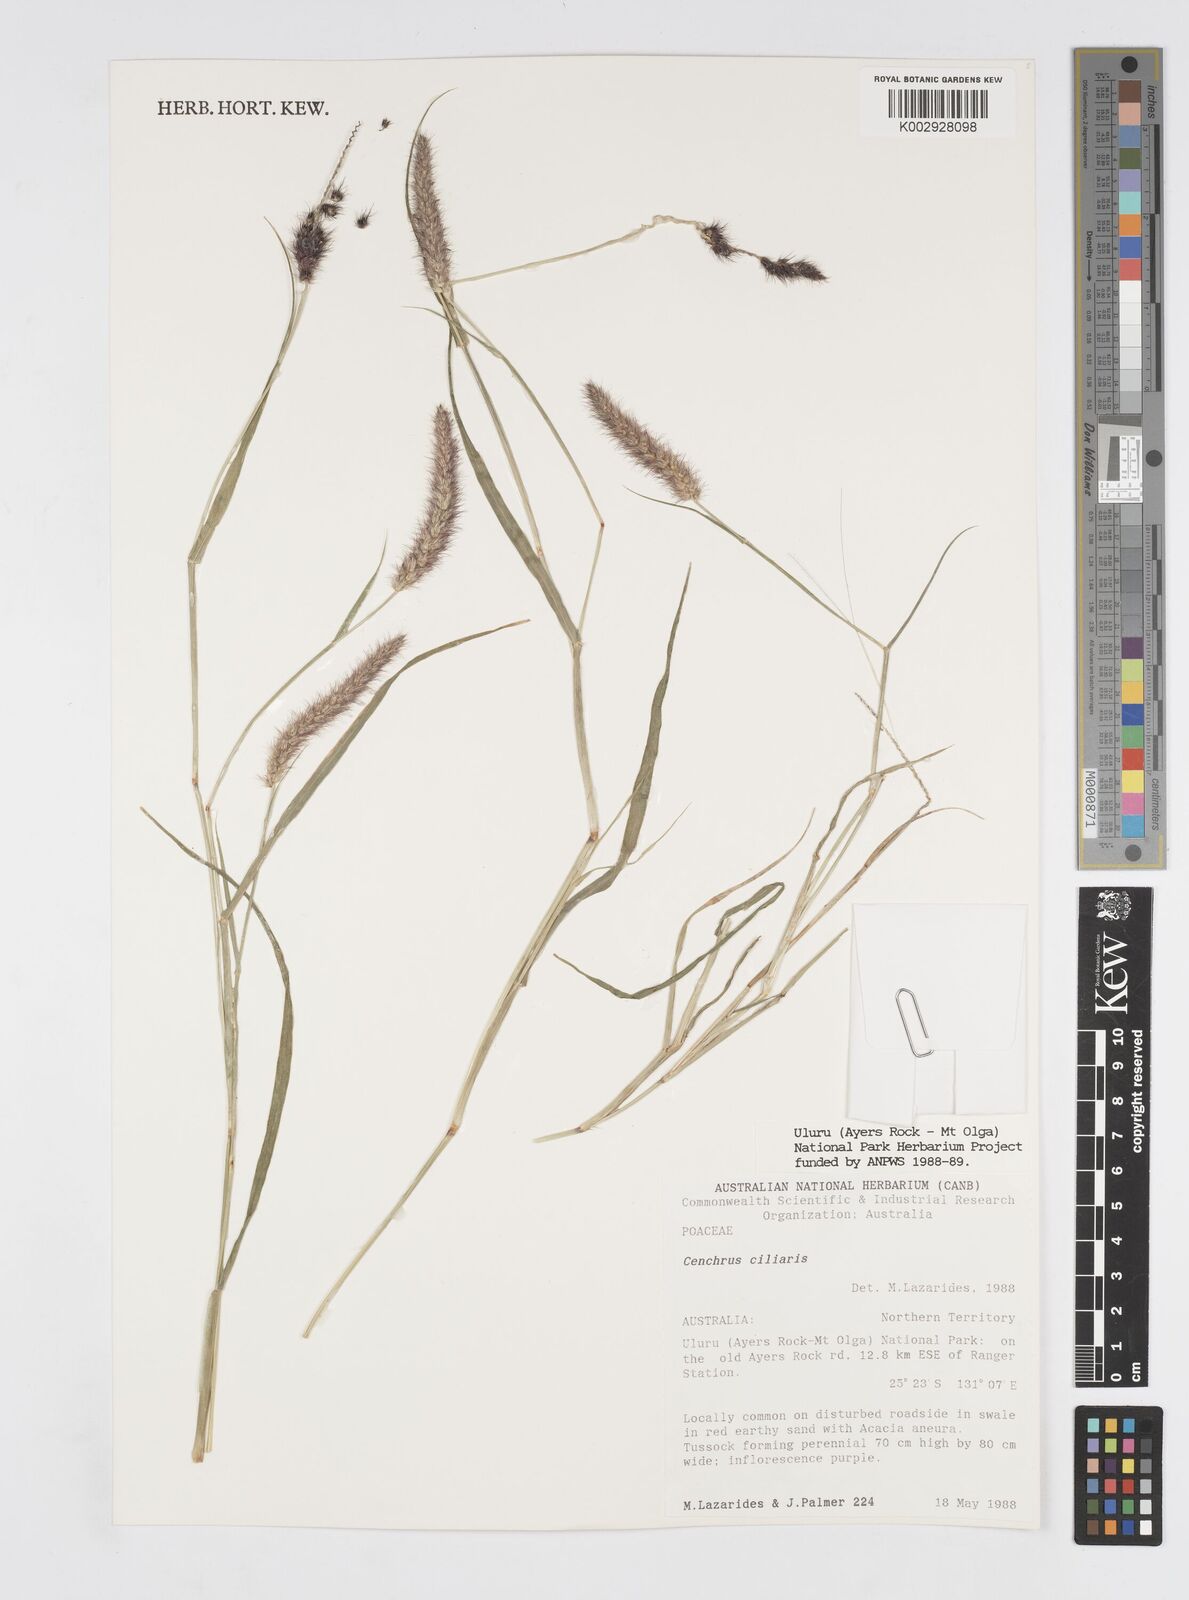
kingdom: Plantae
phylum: Tracheophyta
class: Liliopsida
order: Poales
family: Poaceae
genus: Cenchrus
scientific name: Cenchrus ciliaris
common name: Buffelgrass
